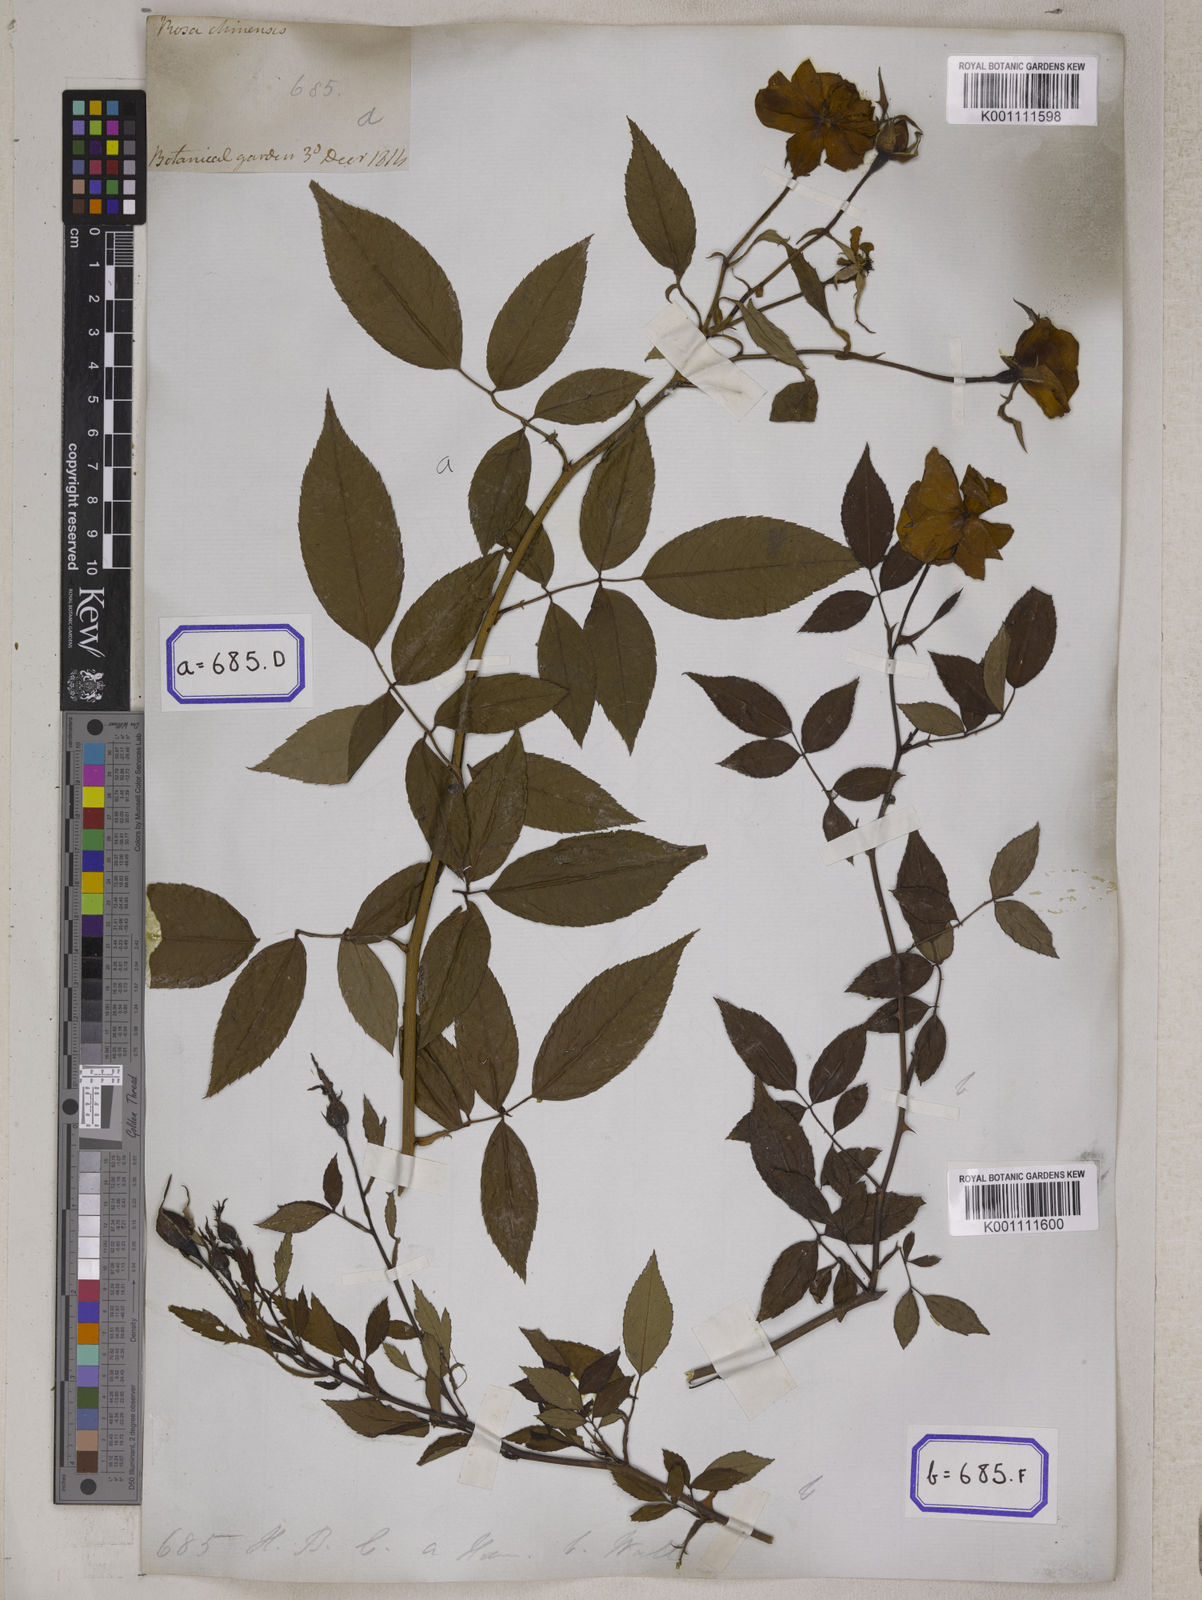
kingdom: Plantae
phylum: Tracheophyta
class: Magnoliopsida
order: Rosales
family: Rosaceae
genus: Rosa
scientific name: Rosa indica
